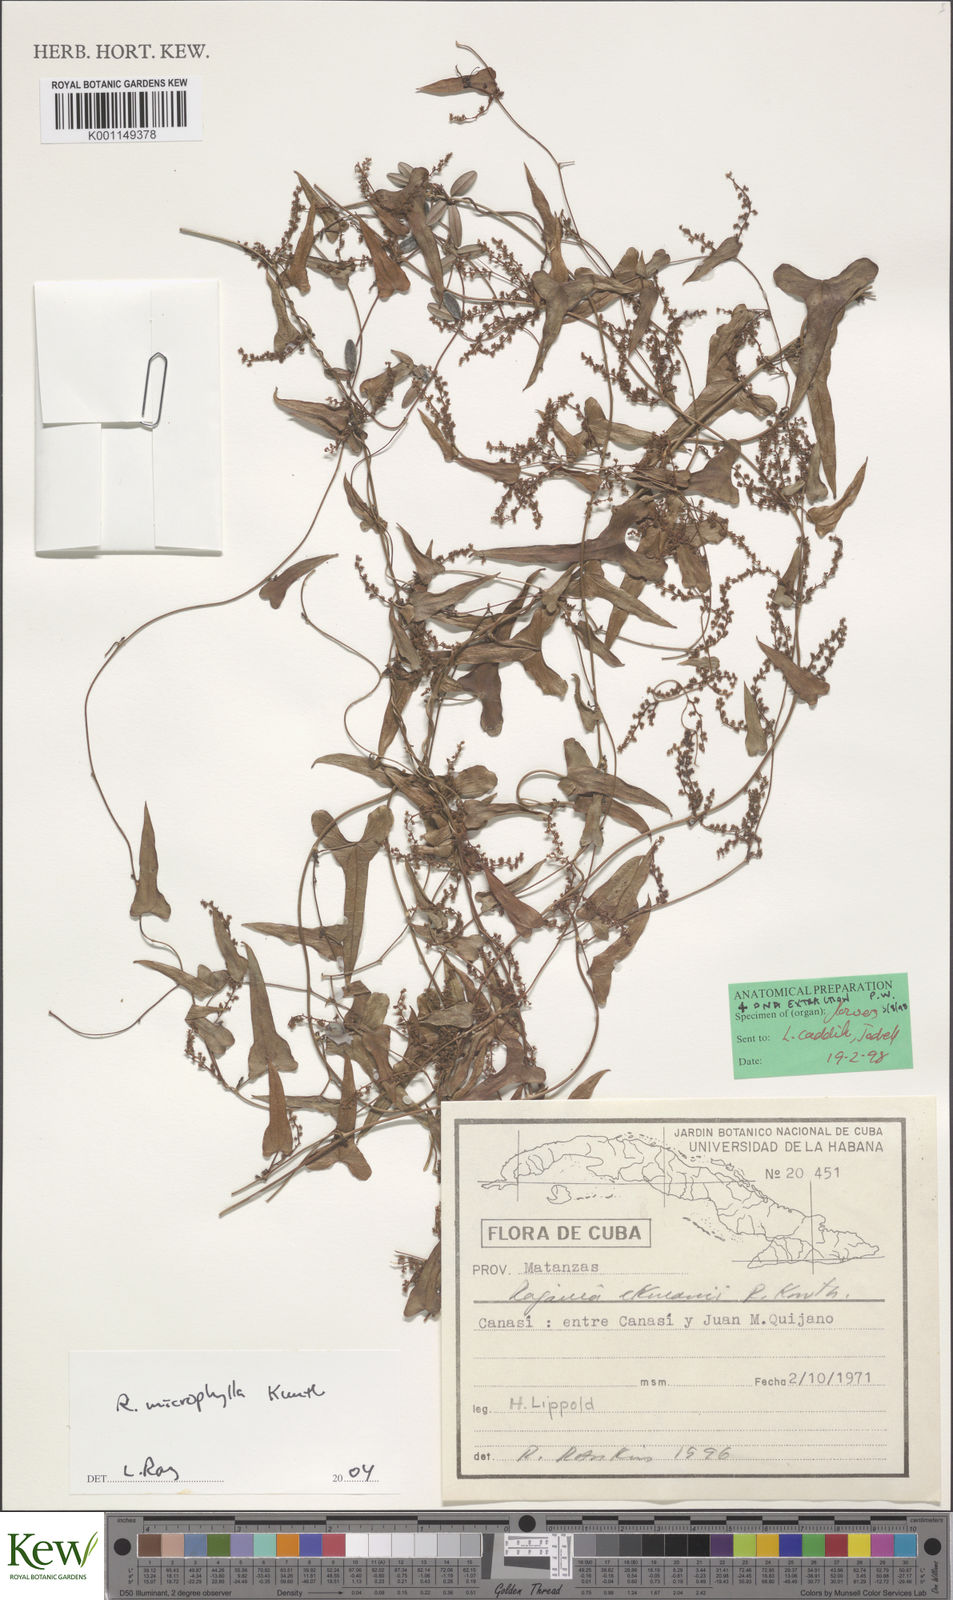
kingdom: Plantae
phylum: Tracheophyta
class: Liliopsida
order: Dioscoreales
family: Dioscoreaceae
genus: Dioscorea
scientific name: Dioscorea variifolia
